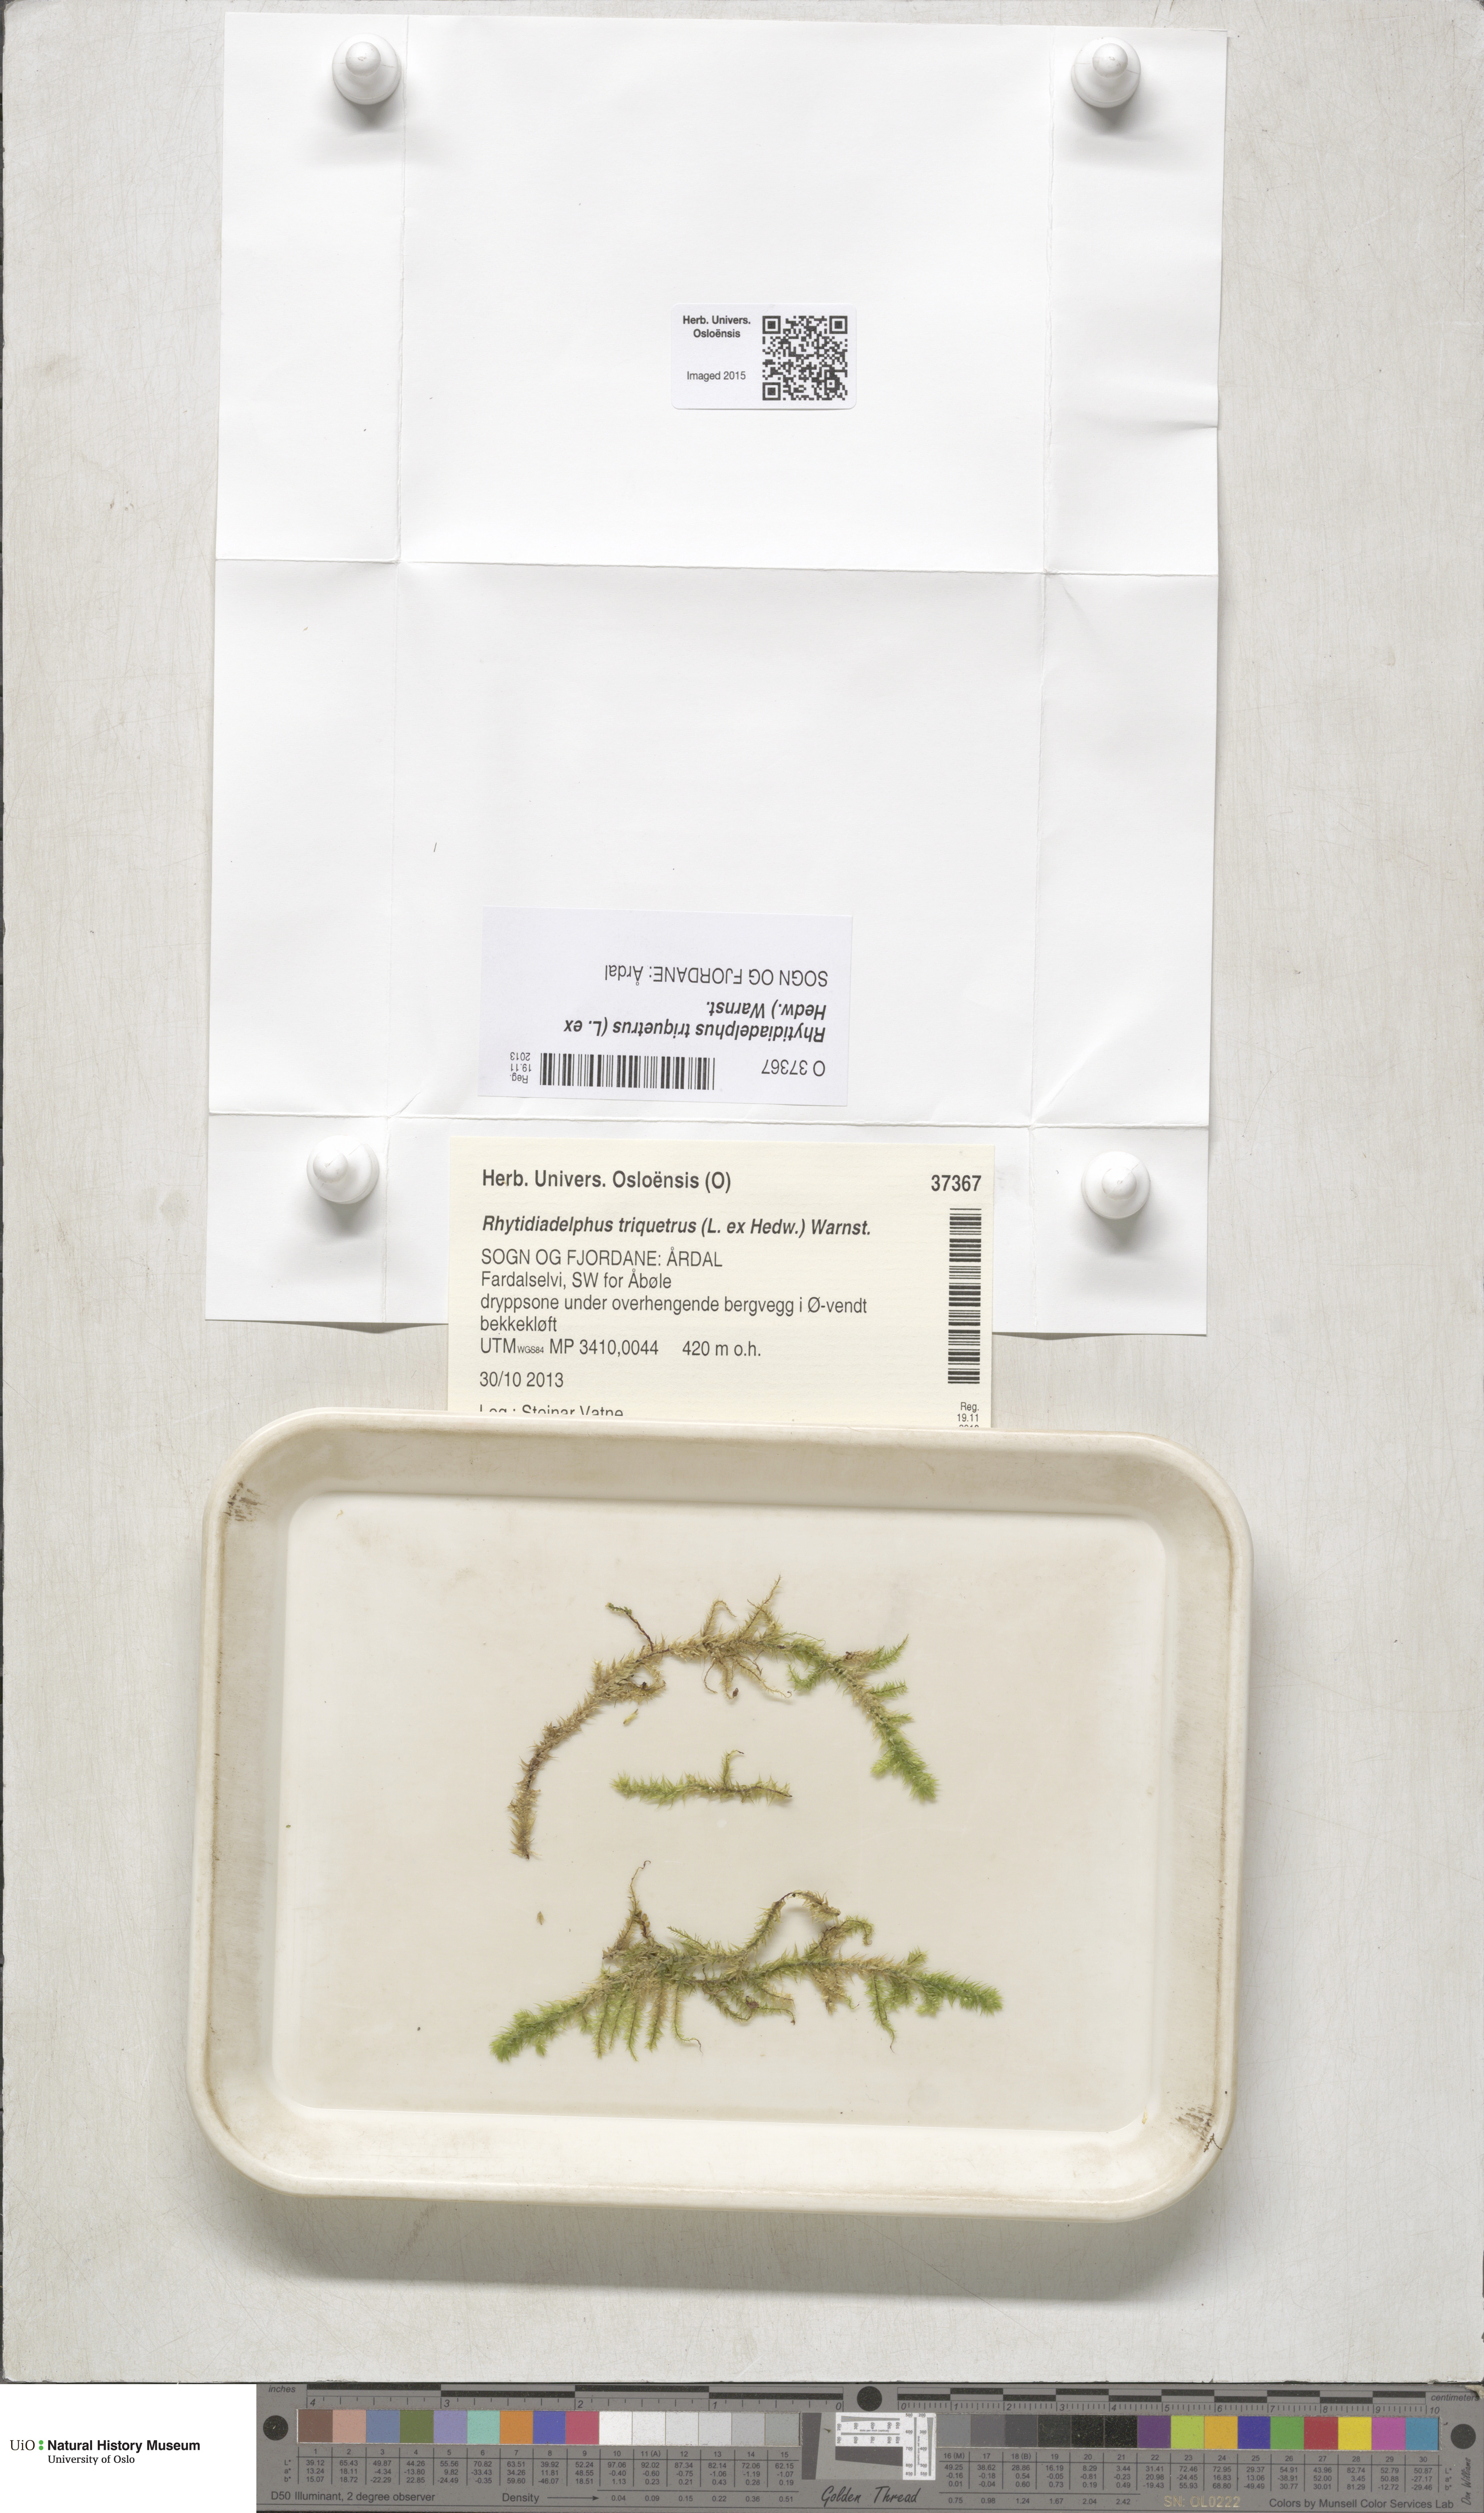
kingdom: Plantae
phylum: Bryophyta
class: Bryopsida
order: Hypnales
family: Hylocomiaceae
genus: Hylocomiadelphus
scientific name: Hylocomiadelphus triquetrus
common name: Rough goose neck moss
